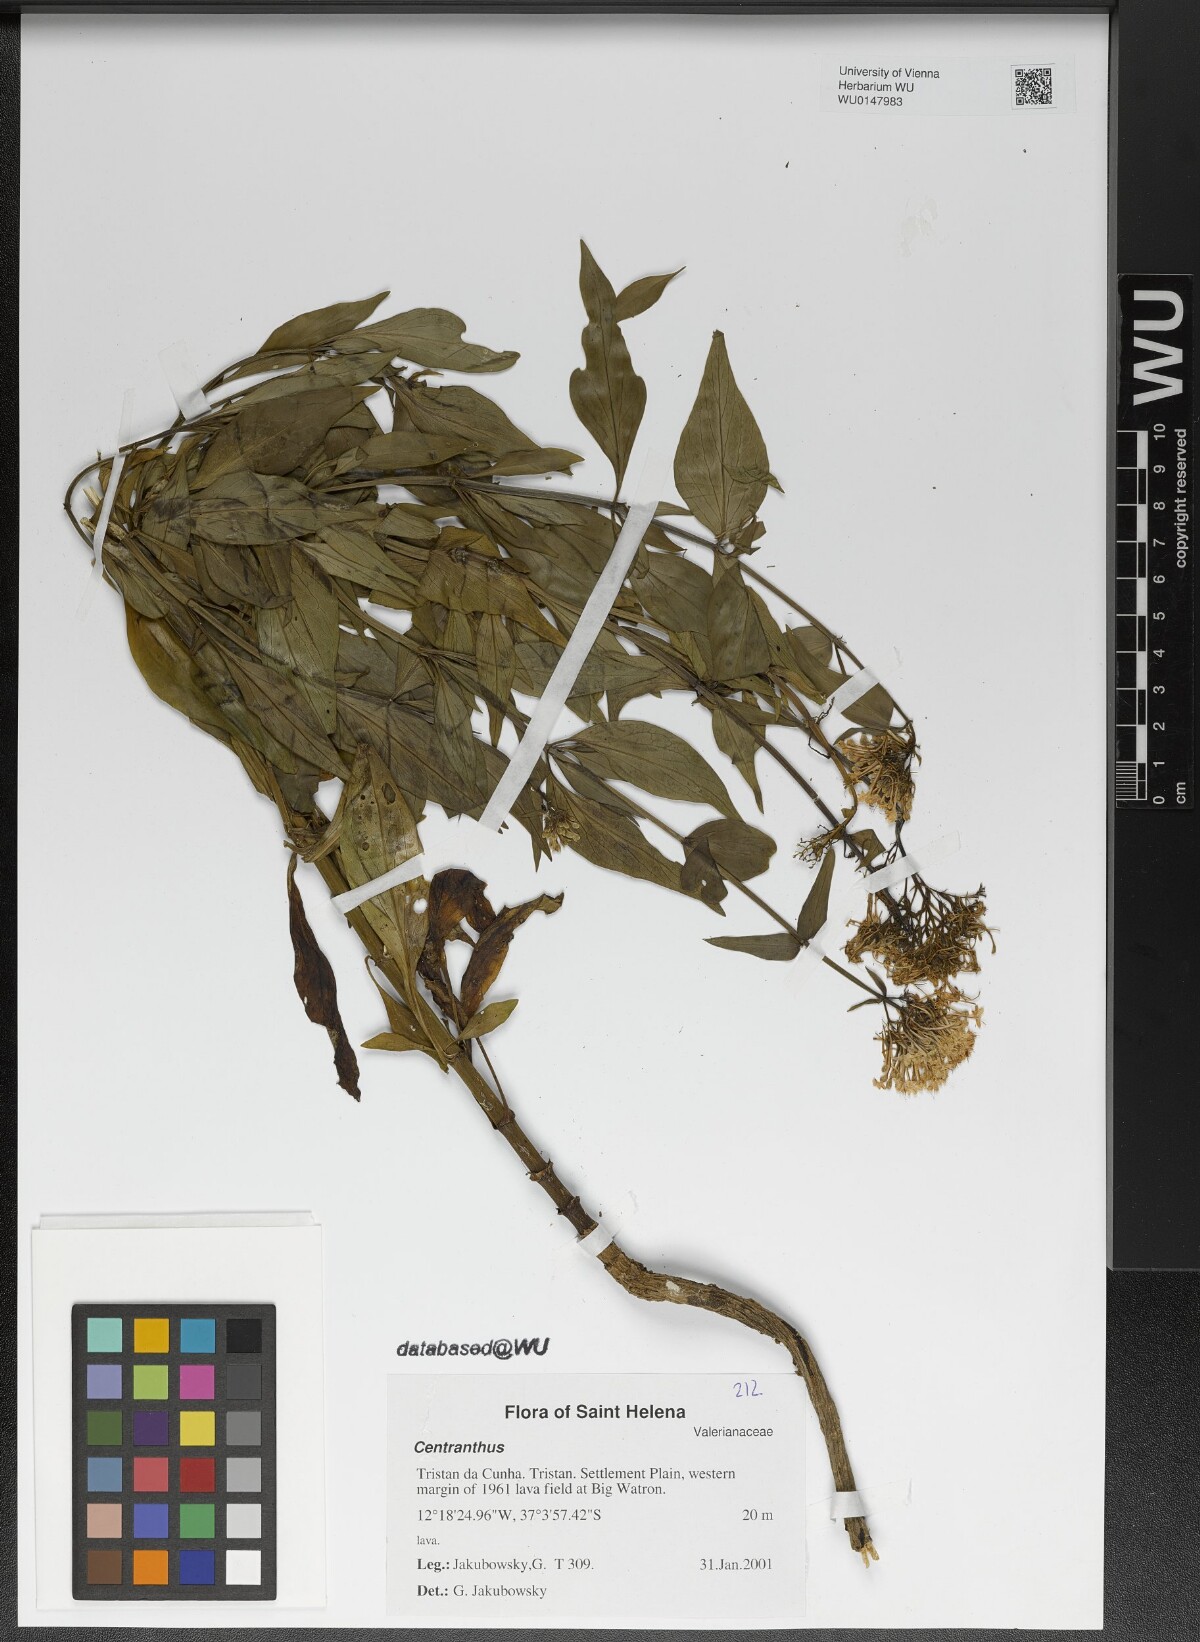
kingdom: Plantae
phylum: Tracheophyta
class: Magnoliopsida
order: Dipsacales
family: Caprifoliaceae
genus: Centranthus
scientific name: Centranthus
